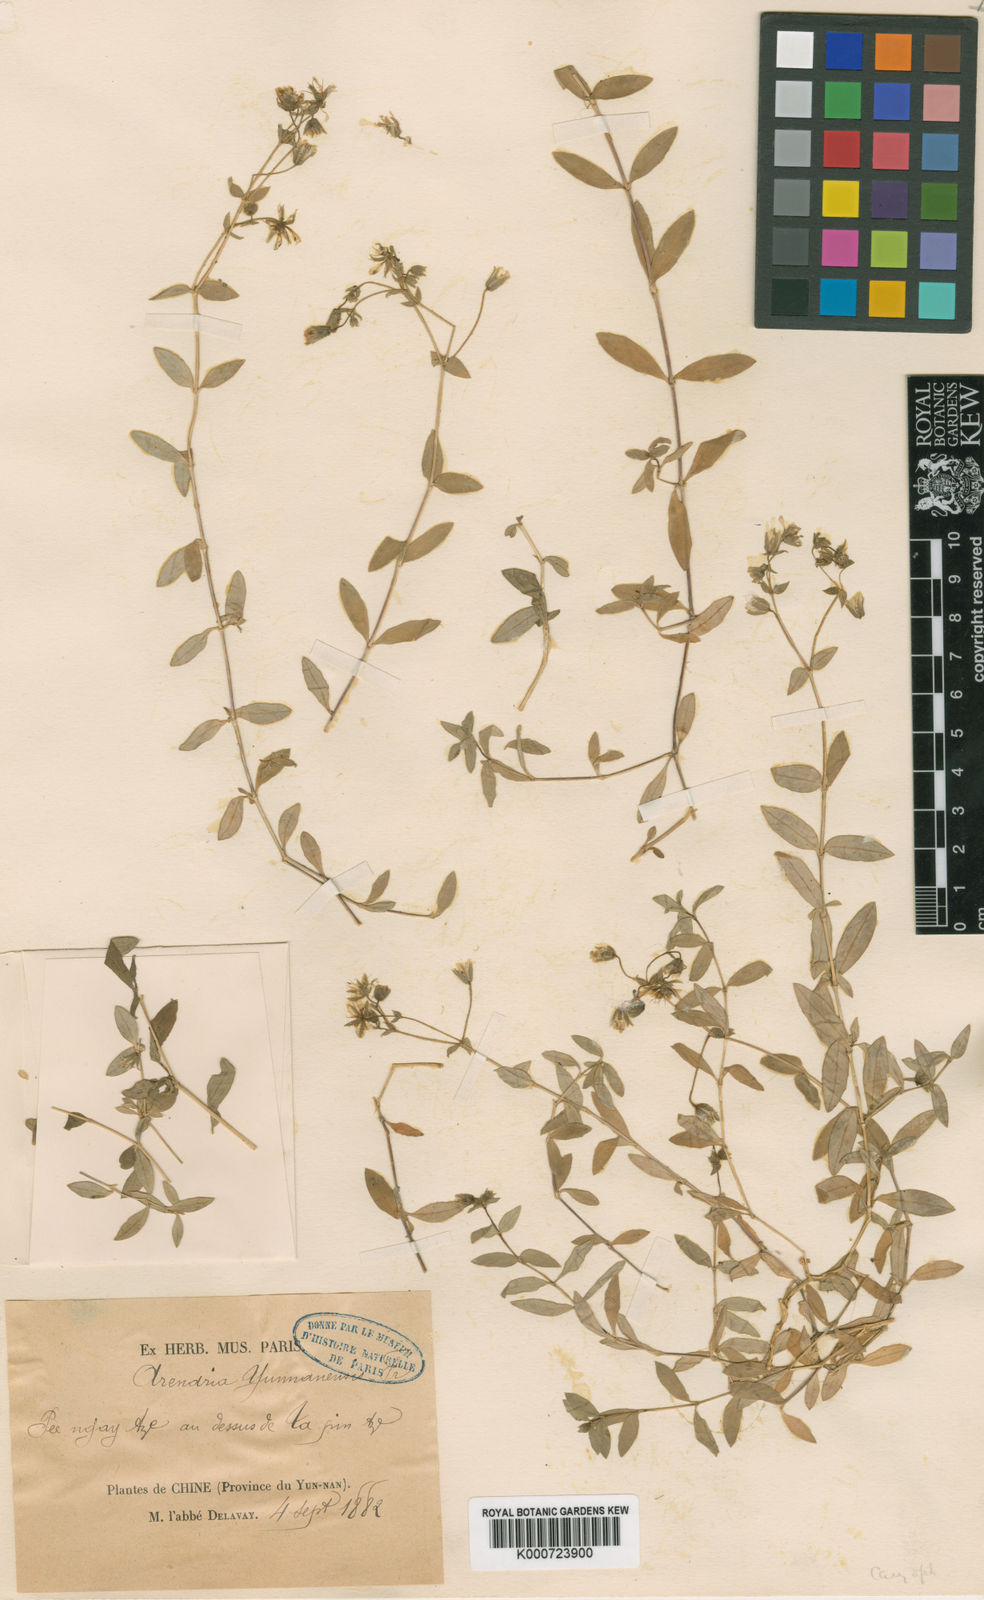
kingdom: Plantae
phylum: Tracheophyta
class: Magnoliopsida
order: Caryophyllales
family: Caryophyllaceae
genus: Odontostemma
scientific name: Odontostemma yunnanense
